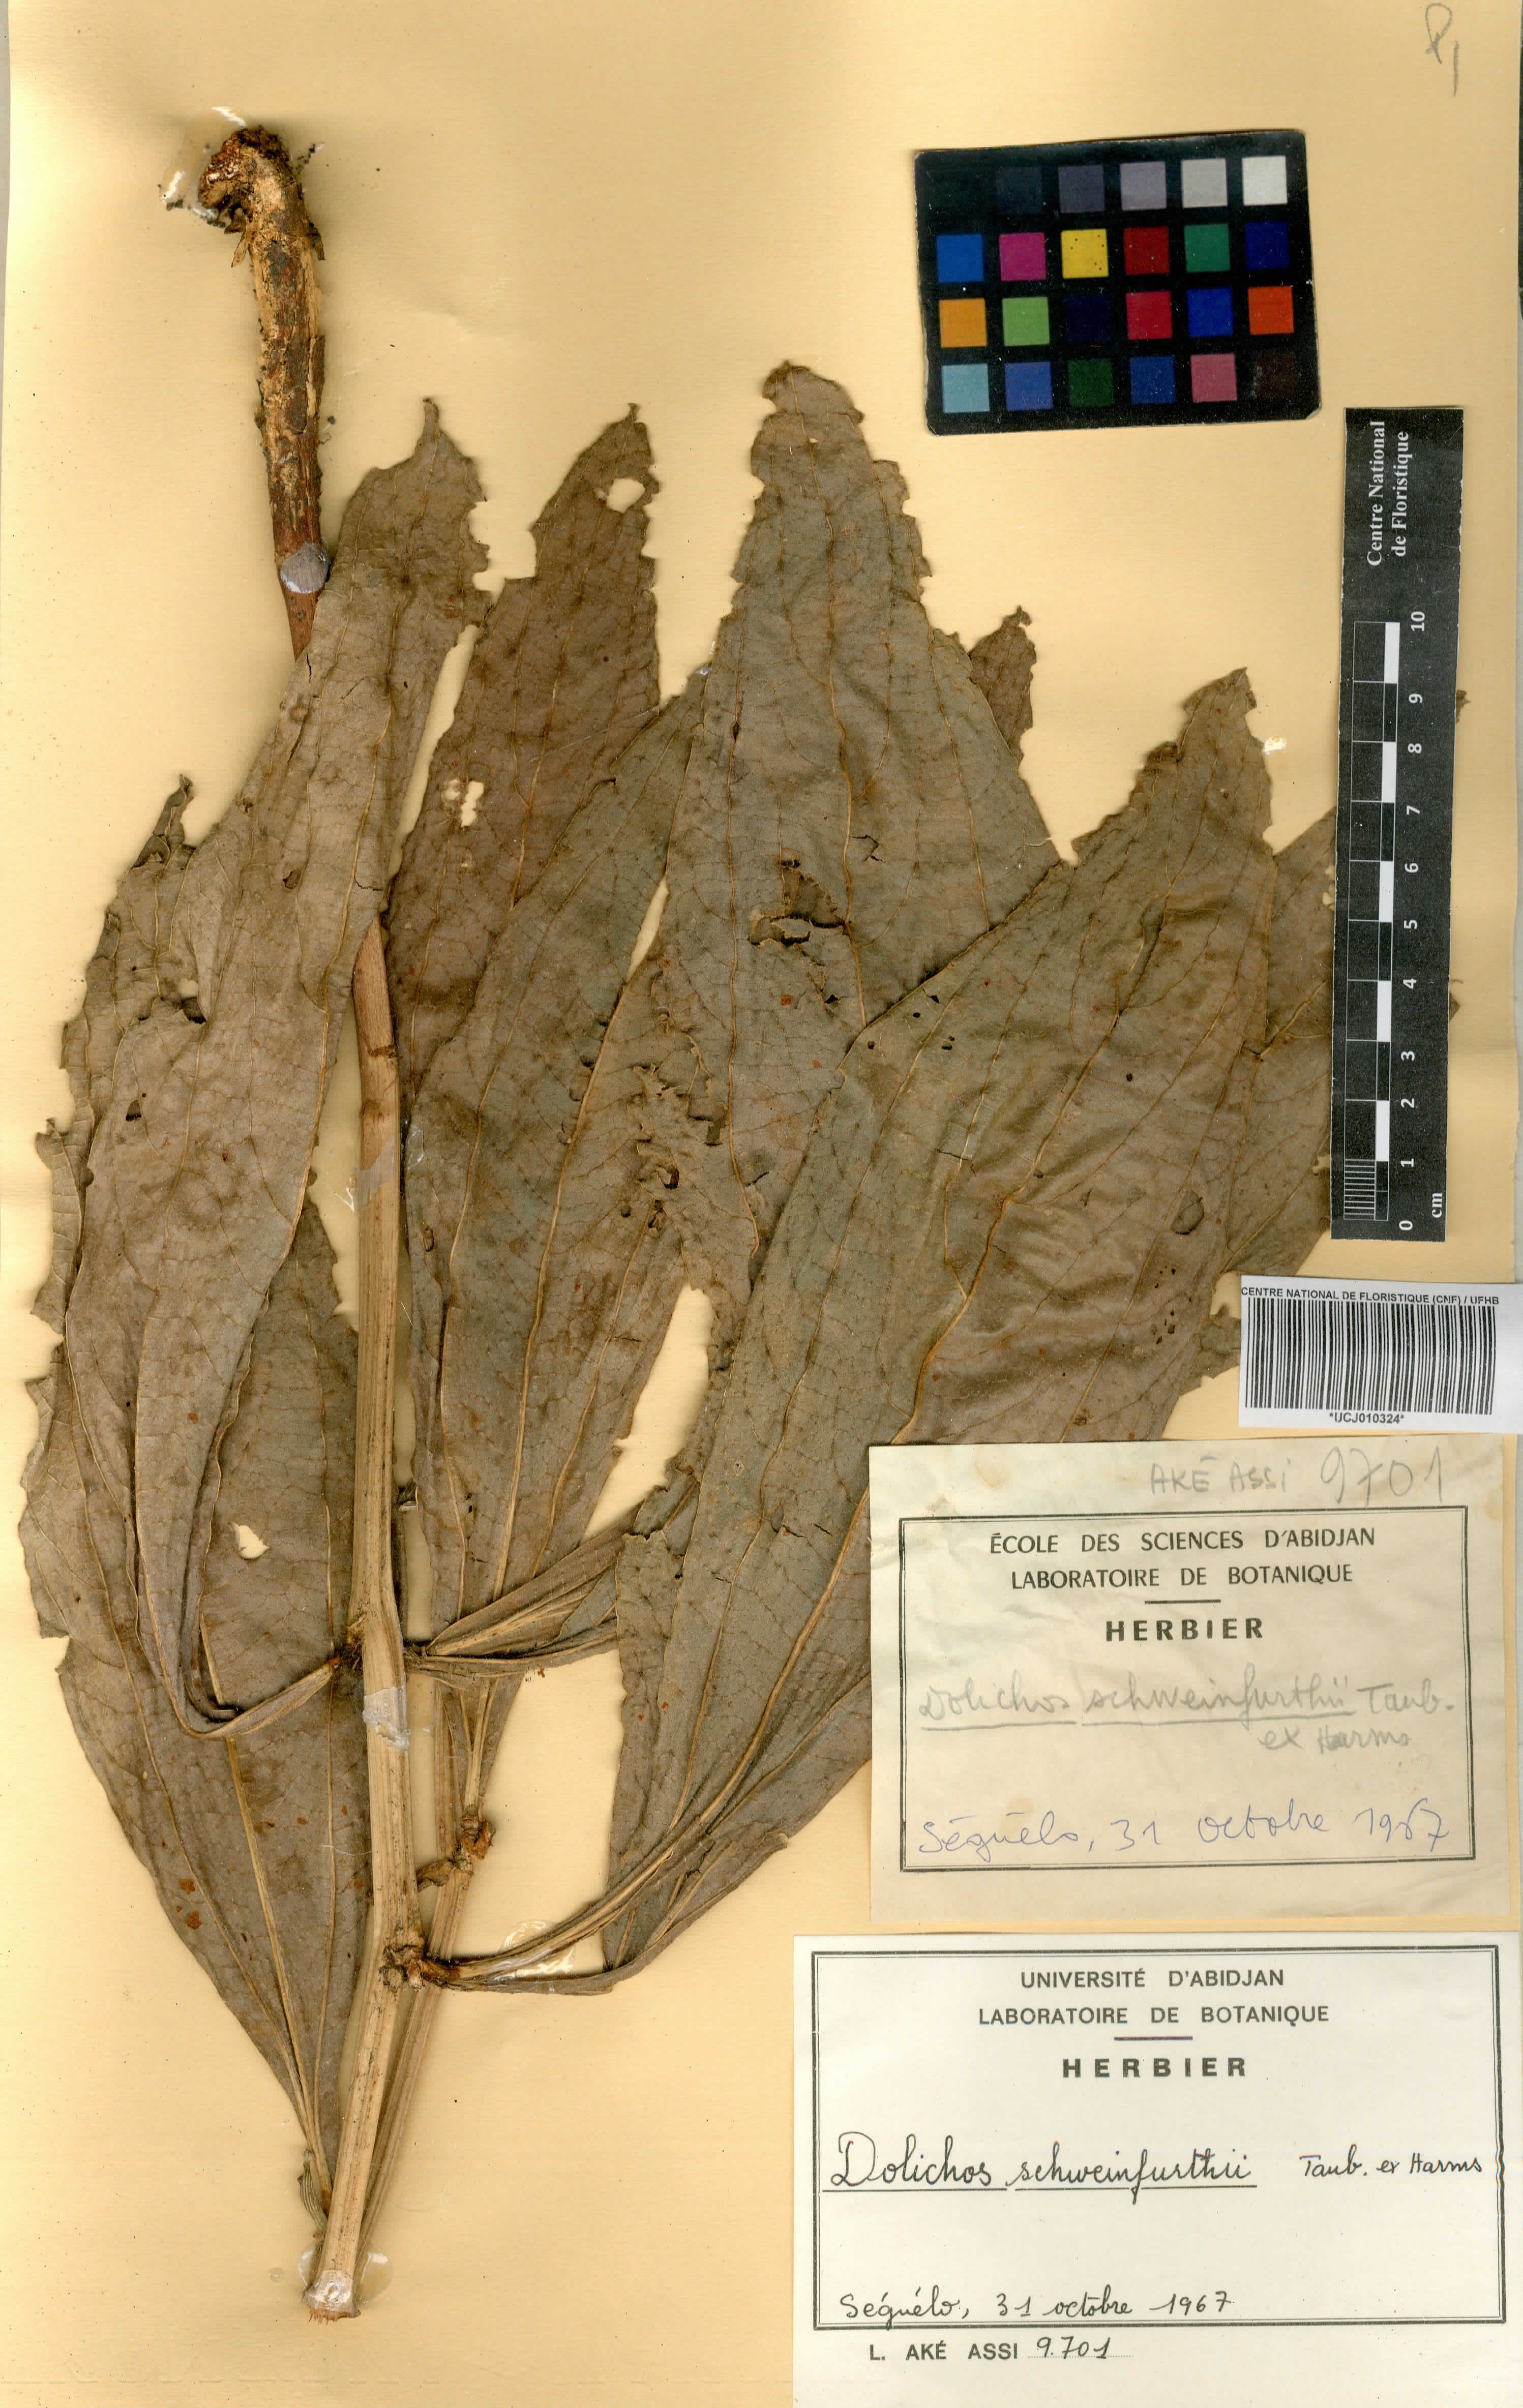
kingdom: Plantae
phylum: Tracheophyta
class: Magnoliopsida
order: Fabales
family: Fabaceae
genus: Dolichos
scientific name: Dolichos schweinfurthii
